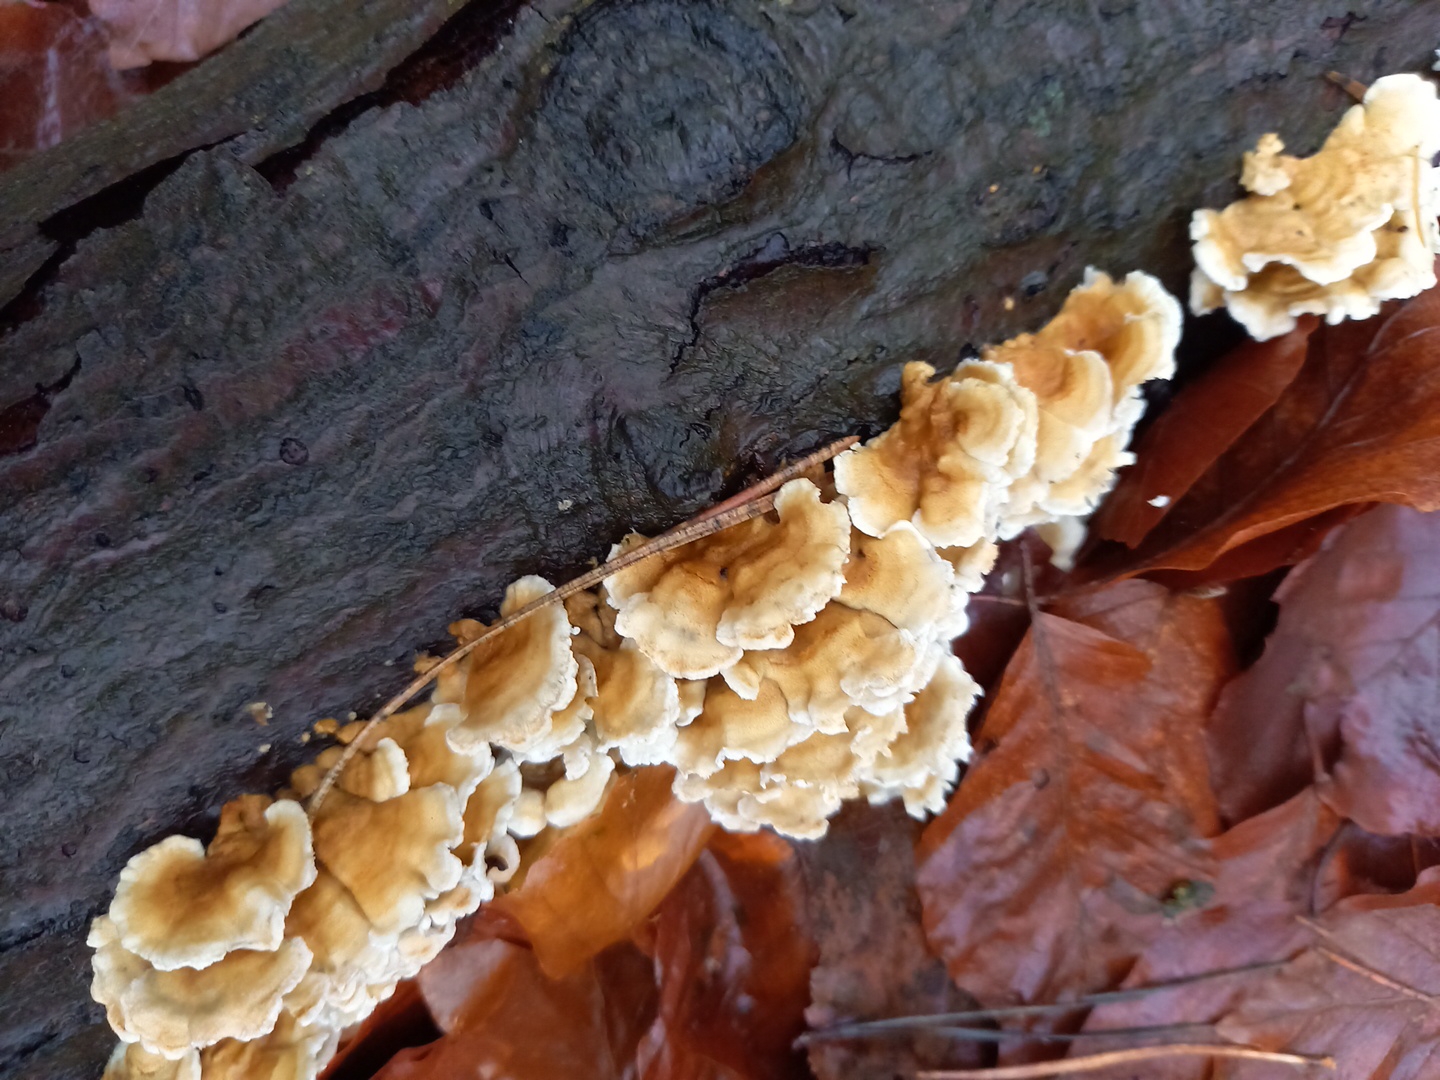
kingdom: Fungi
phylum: Basidiomycota
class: Agaricomycetes
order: Amylocorticiales
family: Amylocorticiaceae
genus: Plicaturopsis
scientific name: Plicaturopsis crispa
